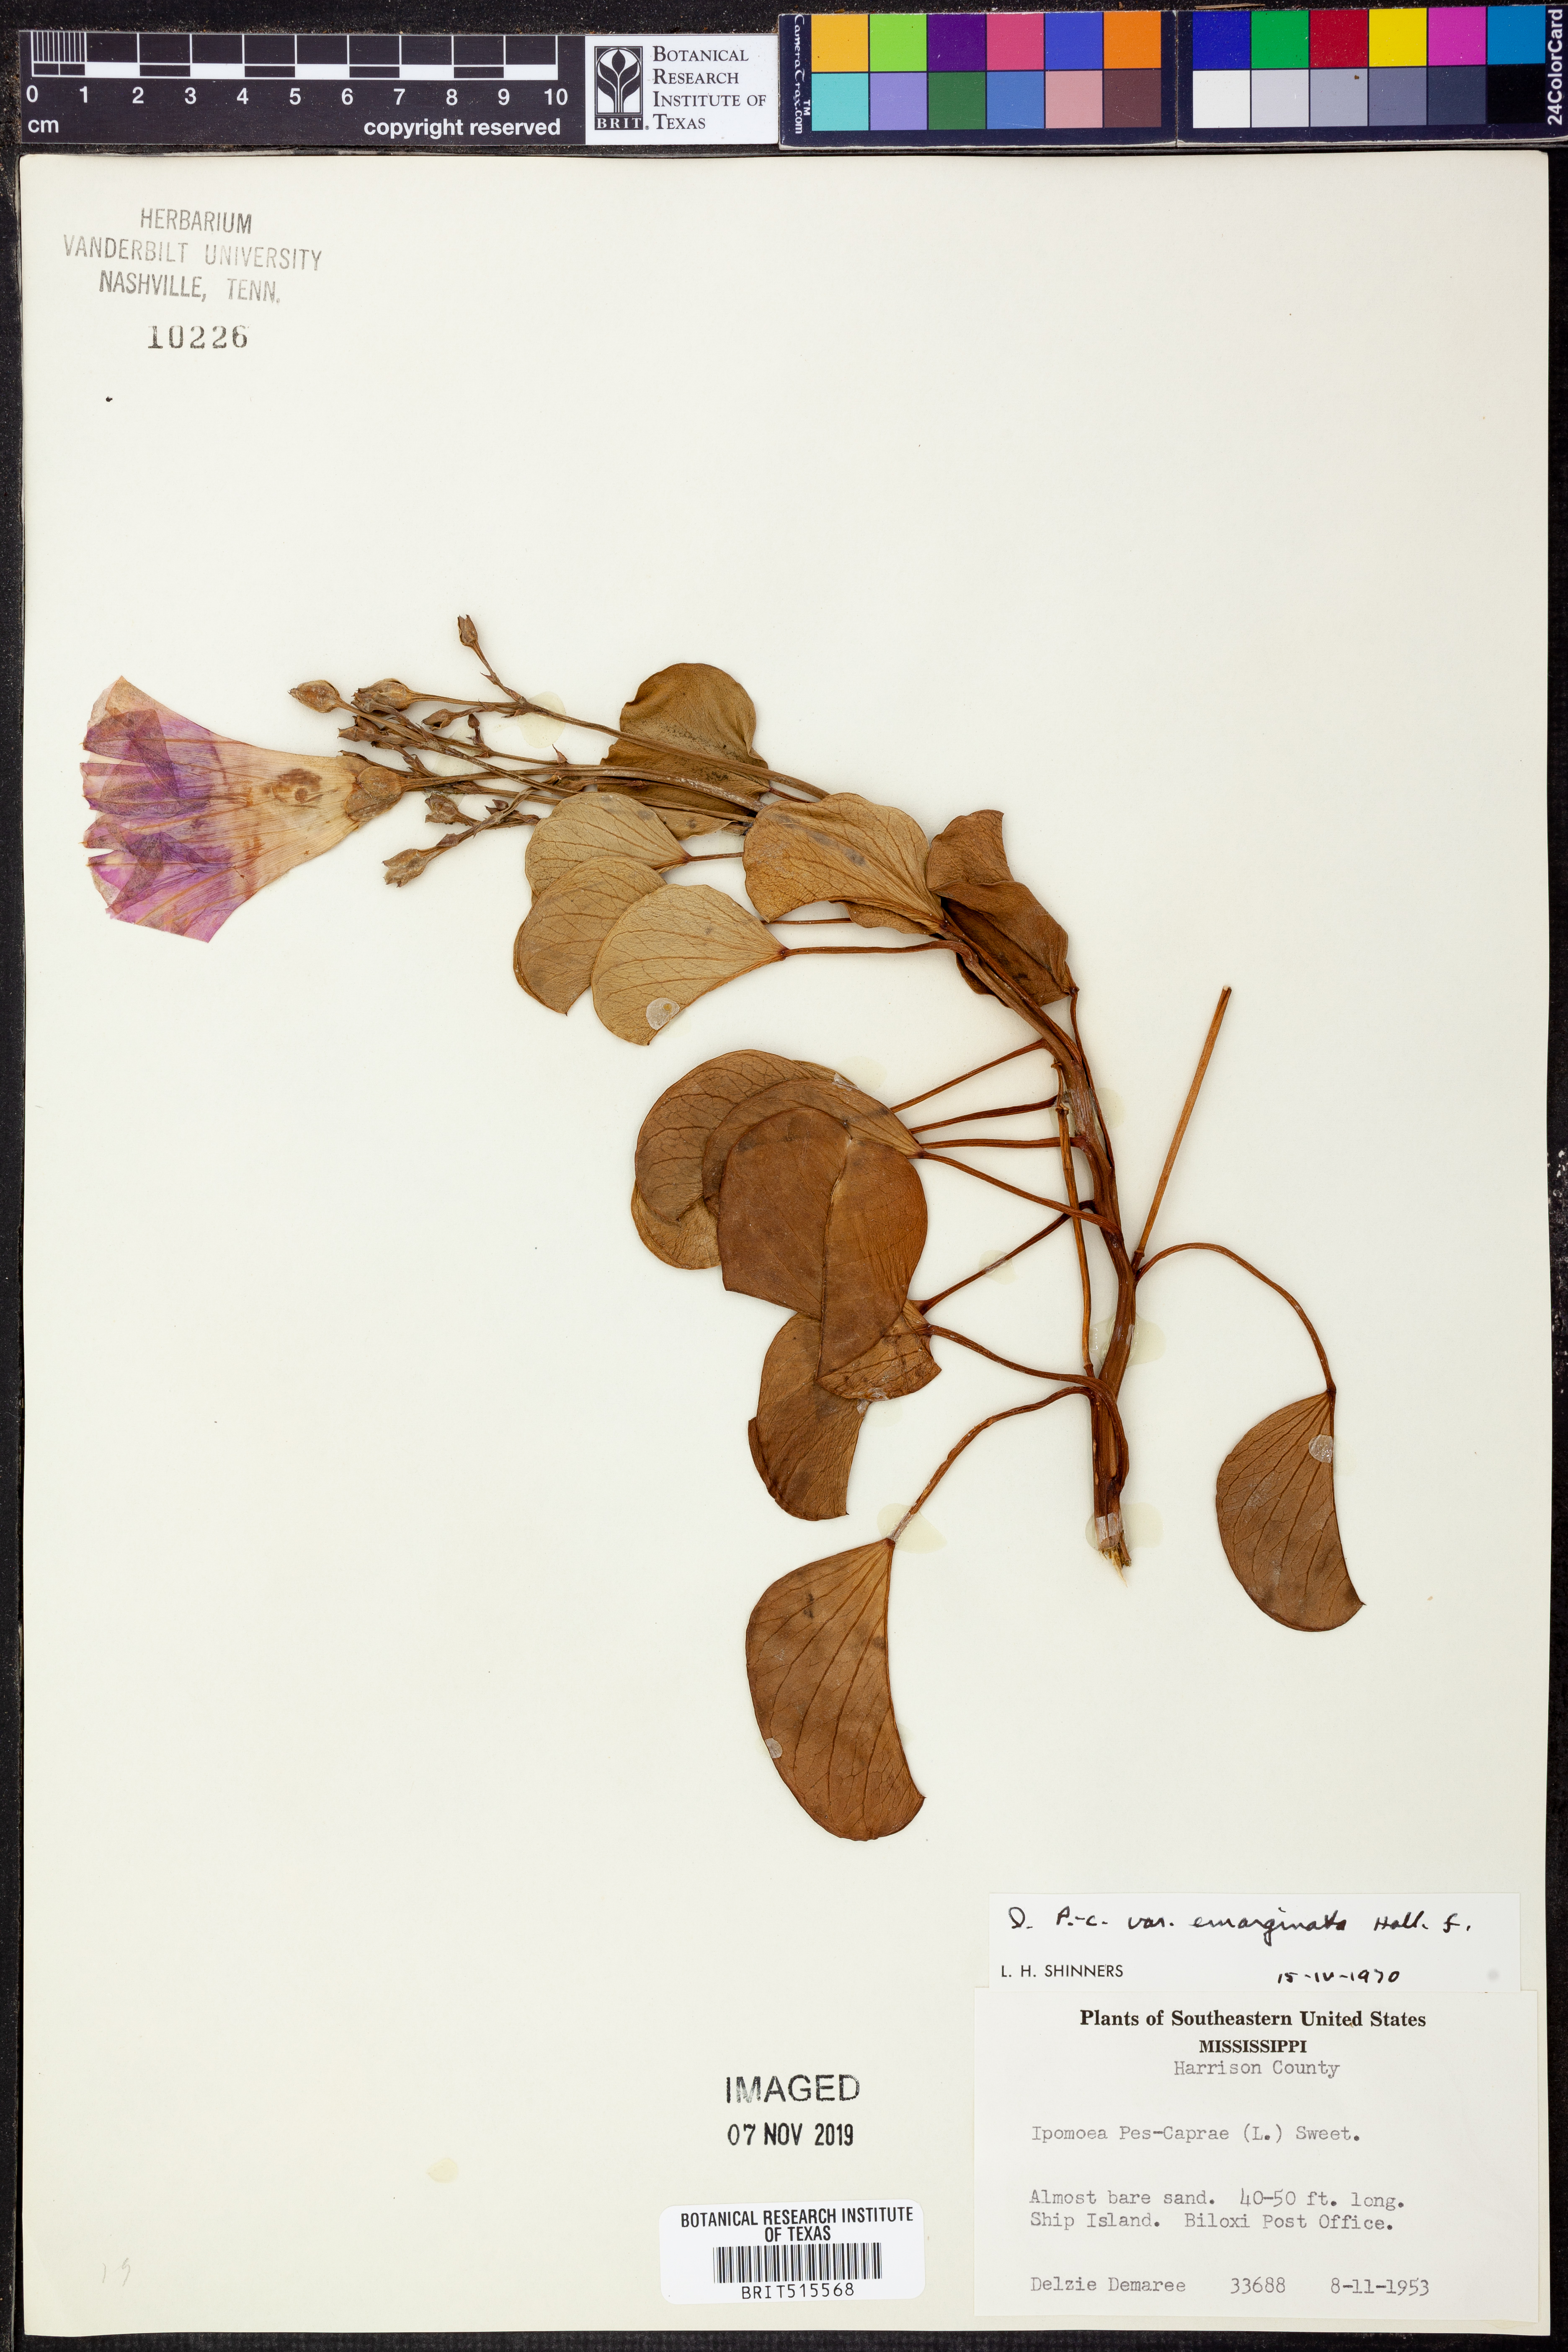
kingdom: Plantae
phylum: Tracheophyta
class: Magnoliopsida
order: Solanales
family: Convolvulaceae
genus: Ipomoea
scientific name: Ipomoea pes-caprae
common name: Beach morning glory
